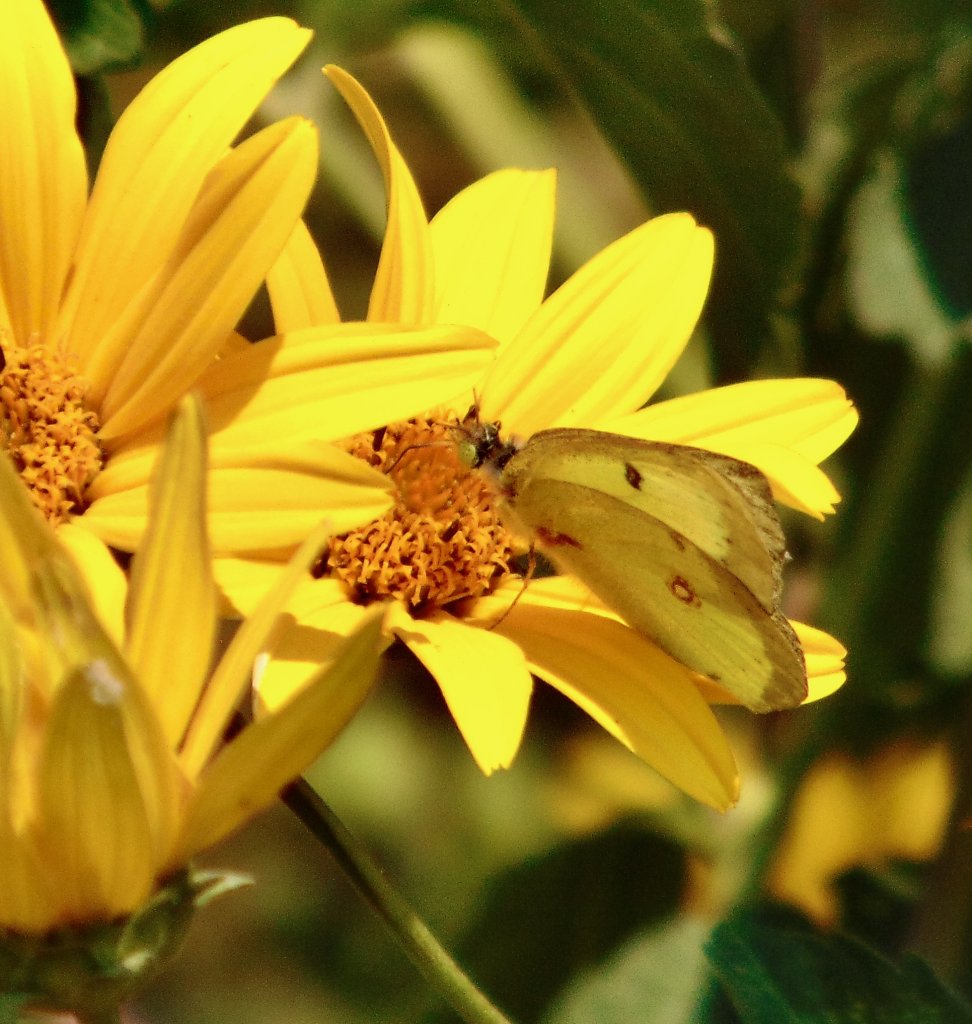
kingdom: Animalia
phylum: Arthropoda
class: Insecta
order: Lepidoptera
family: Pieridae
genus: Colias
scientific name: Colias philodice
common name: Clouded Sulphur
